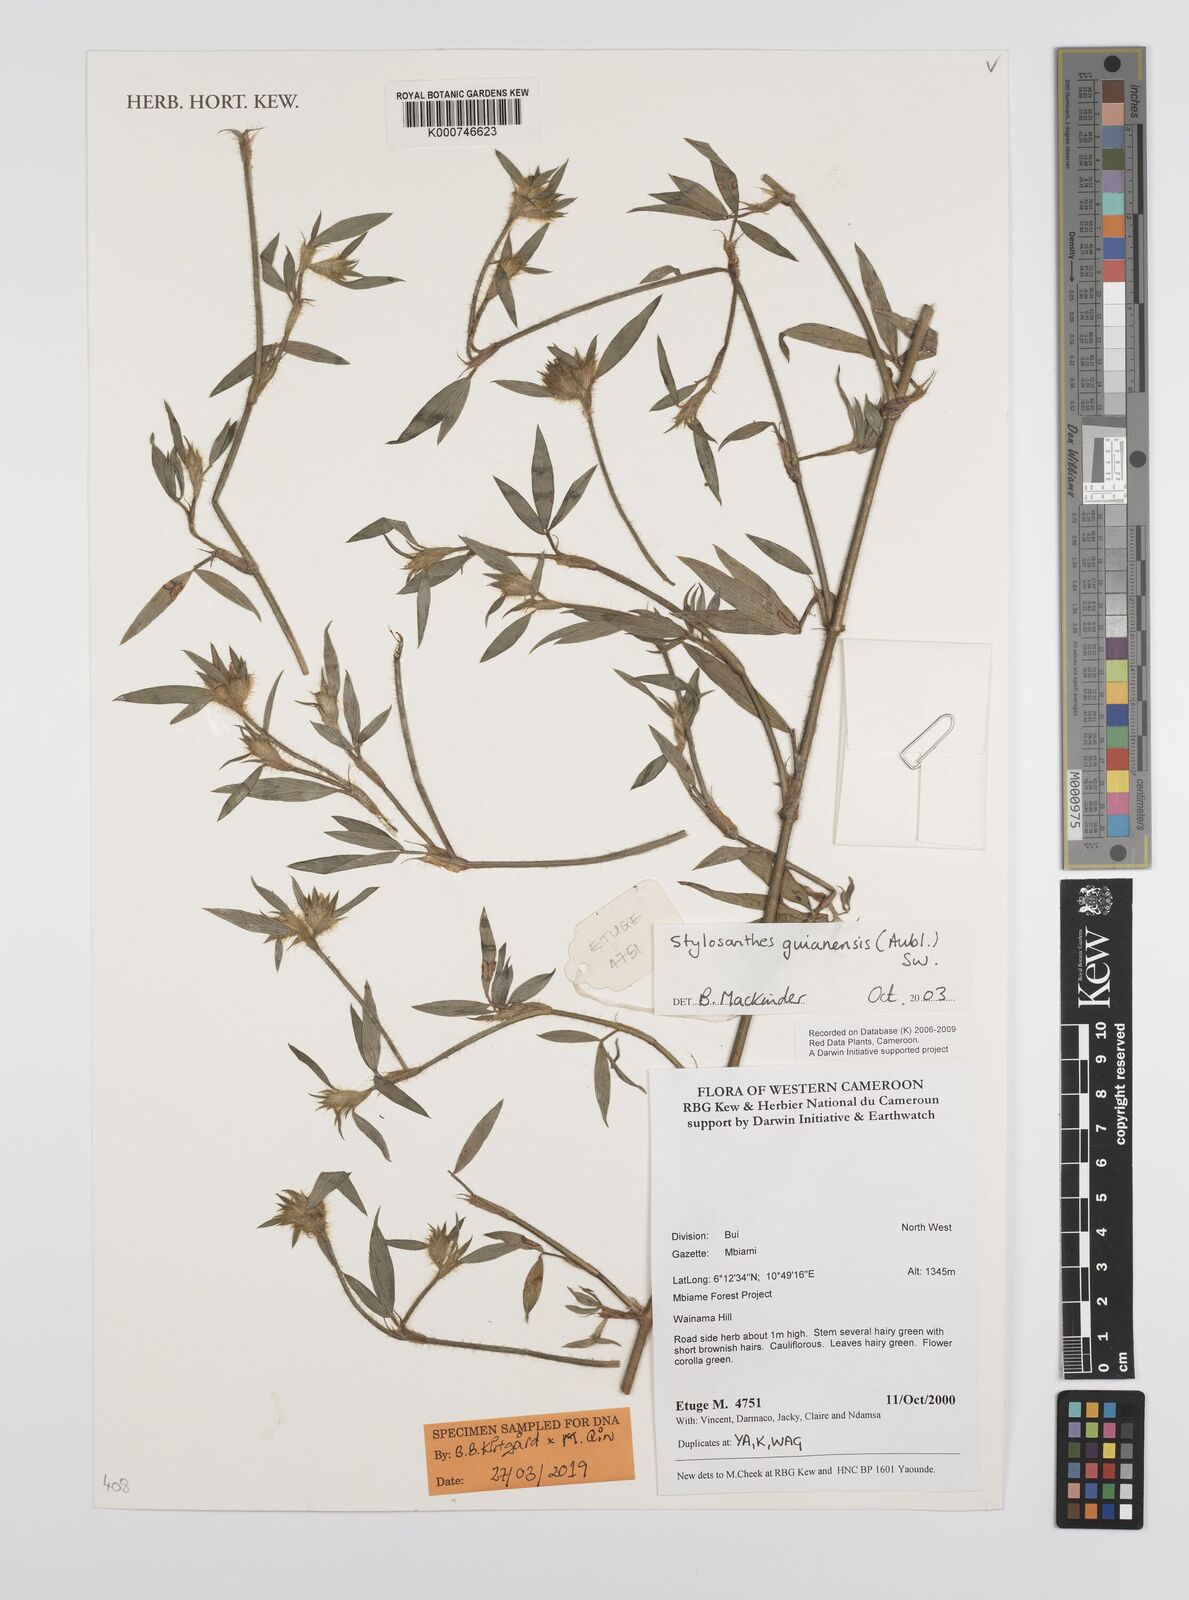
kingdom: Plantae
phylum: Tracheophyta
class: Magnoliopsida
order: Fabales
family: Fabaceae
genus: Stylosanthes
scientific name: Stylosanthes guianensis
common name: Pencil flower
